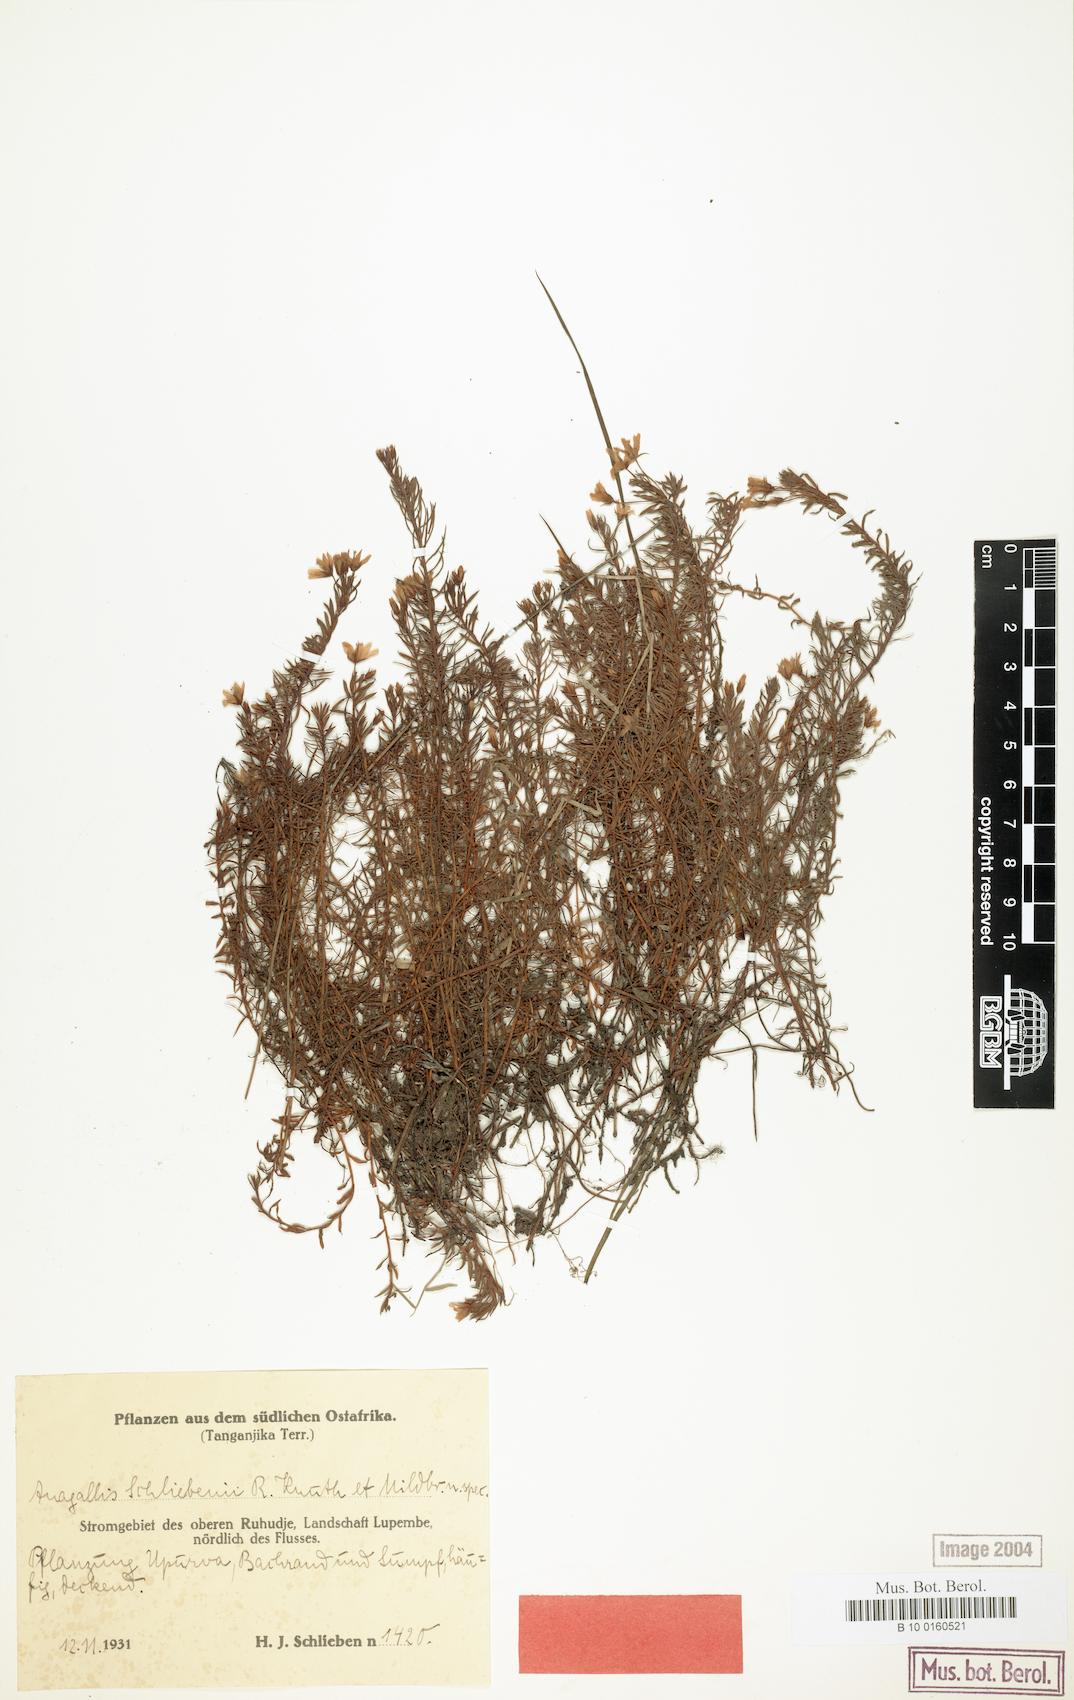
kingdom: Plantae
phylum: Tracheophyta
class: Magnoliopsida
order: Ericales
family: Primulaceae
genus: Lysimachia
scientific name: Lysimachia schliebenii
